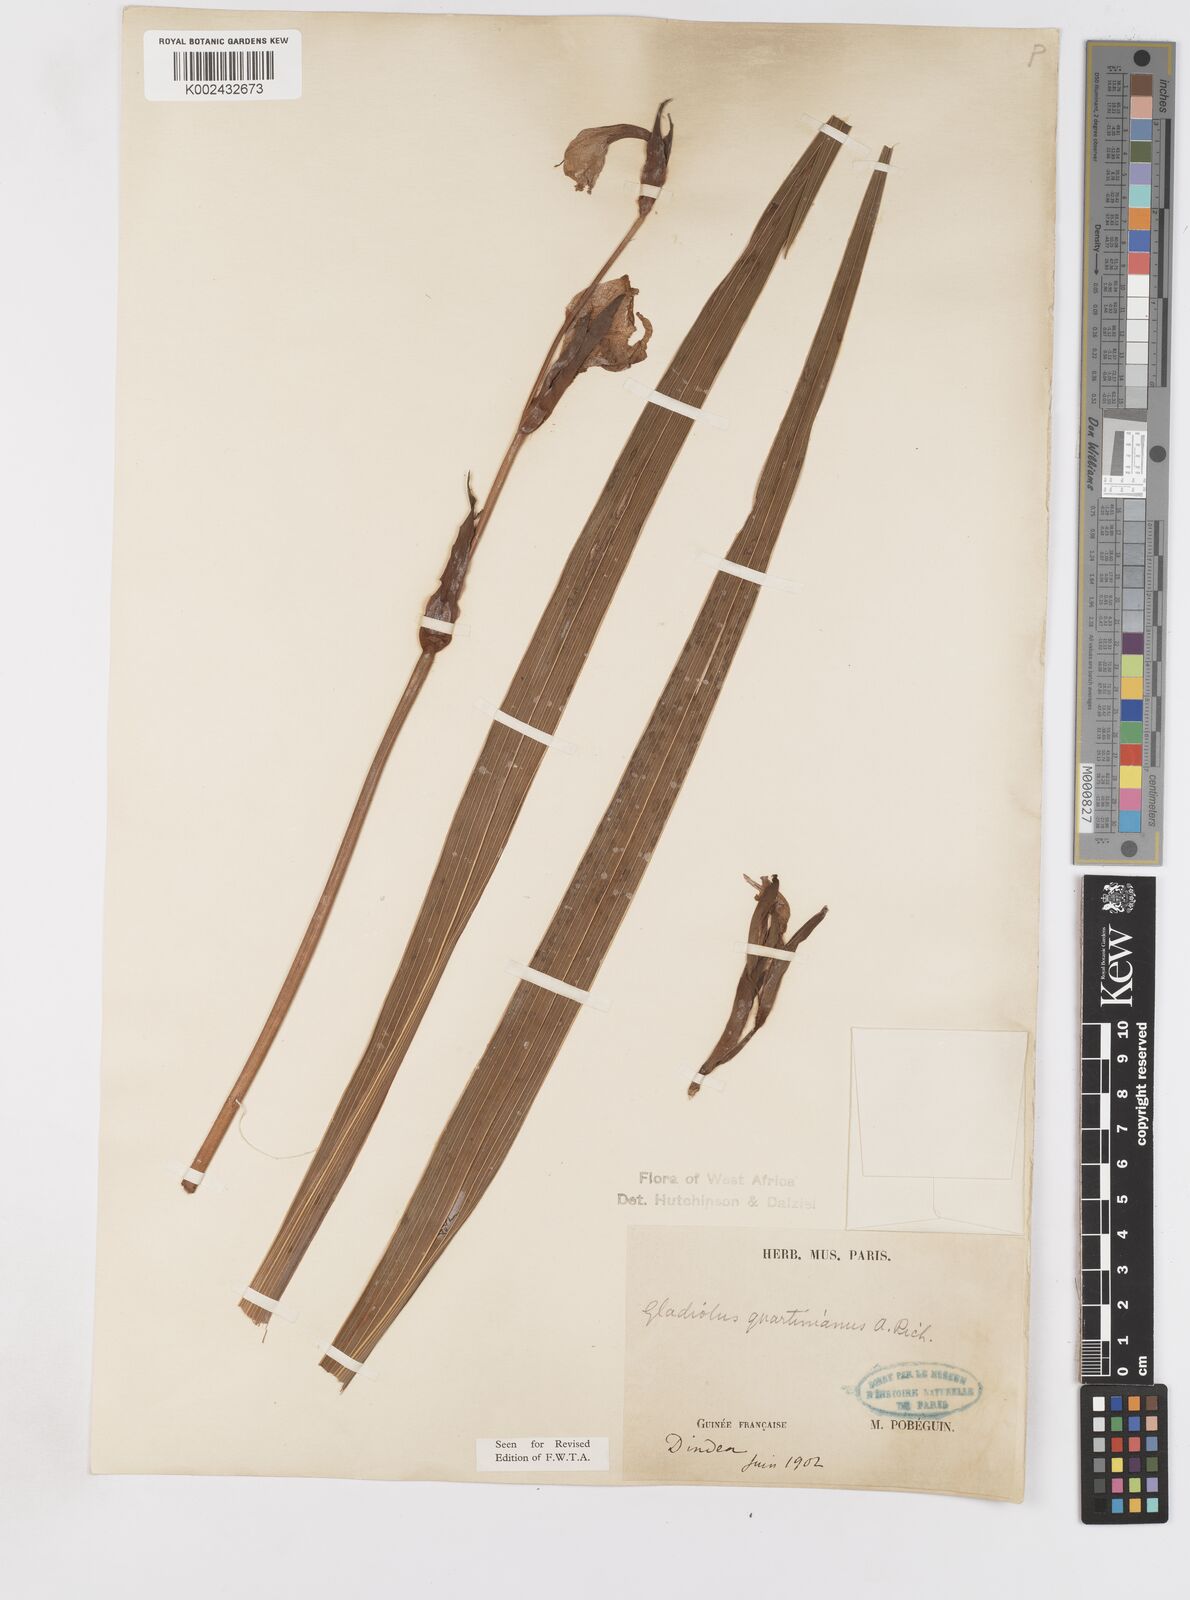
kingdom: Plantae
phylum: Tracheophyta
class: Liliopsida
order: Asparagales
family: Iridaceae
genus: Gladiolus
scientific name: Gladiolus dalenii
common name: Cornflag
